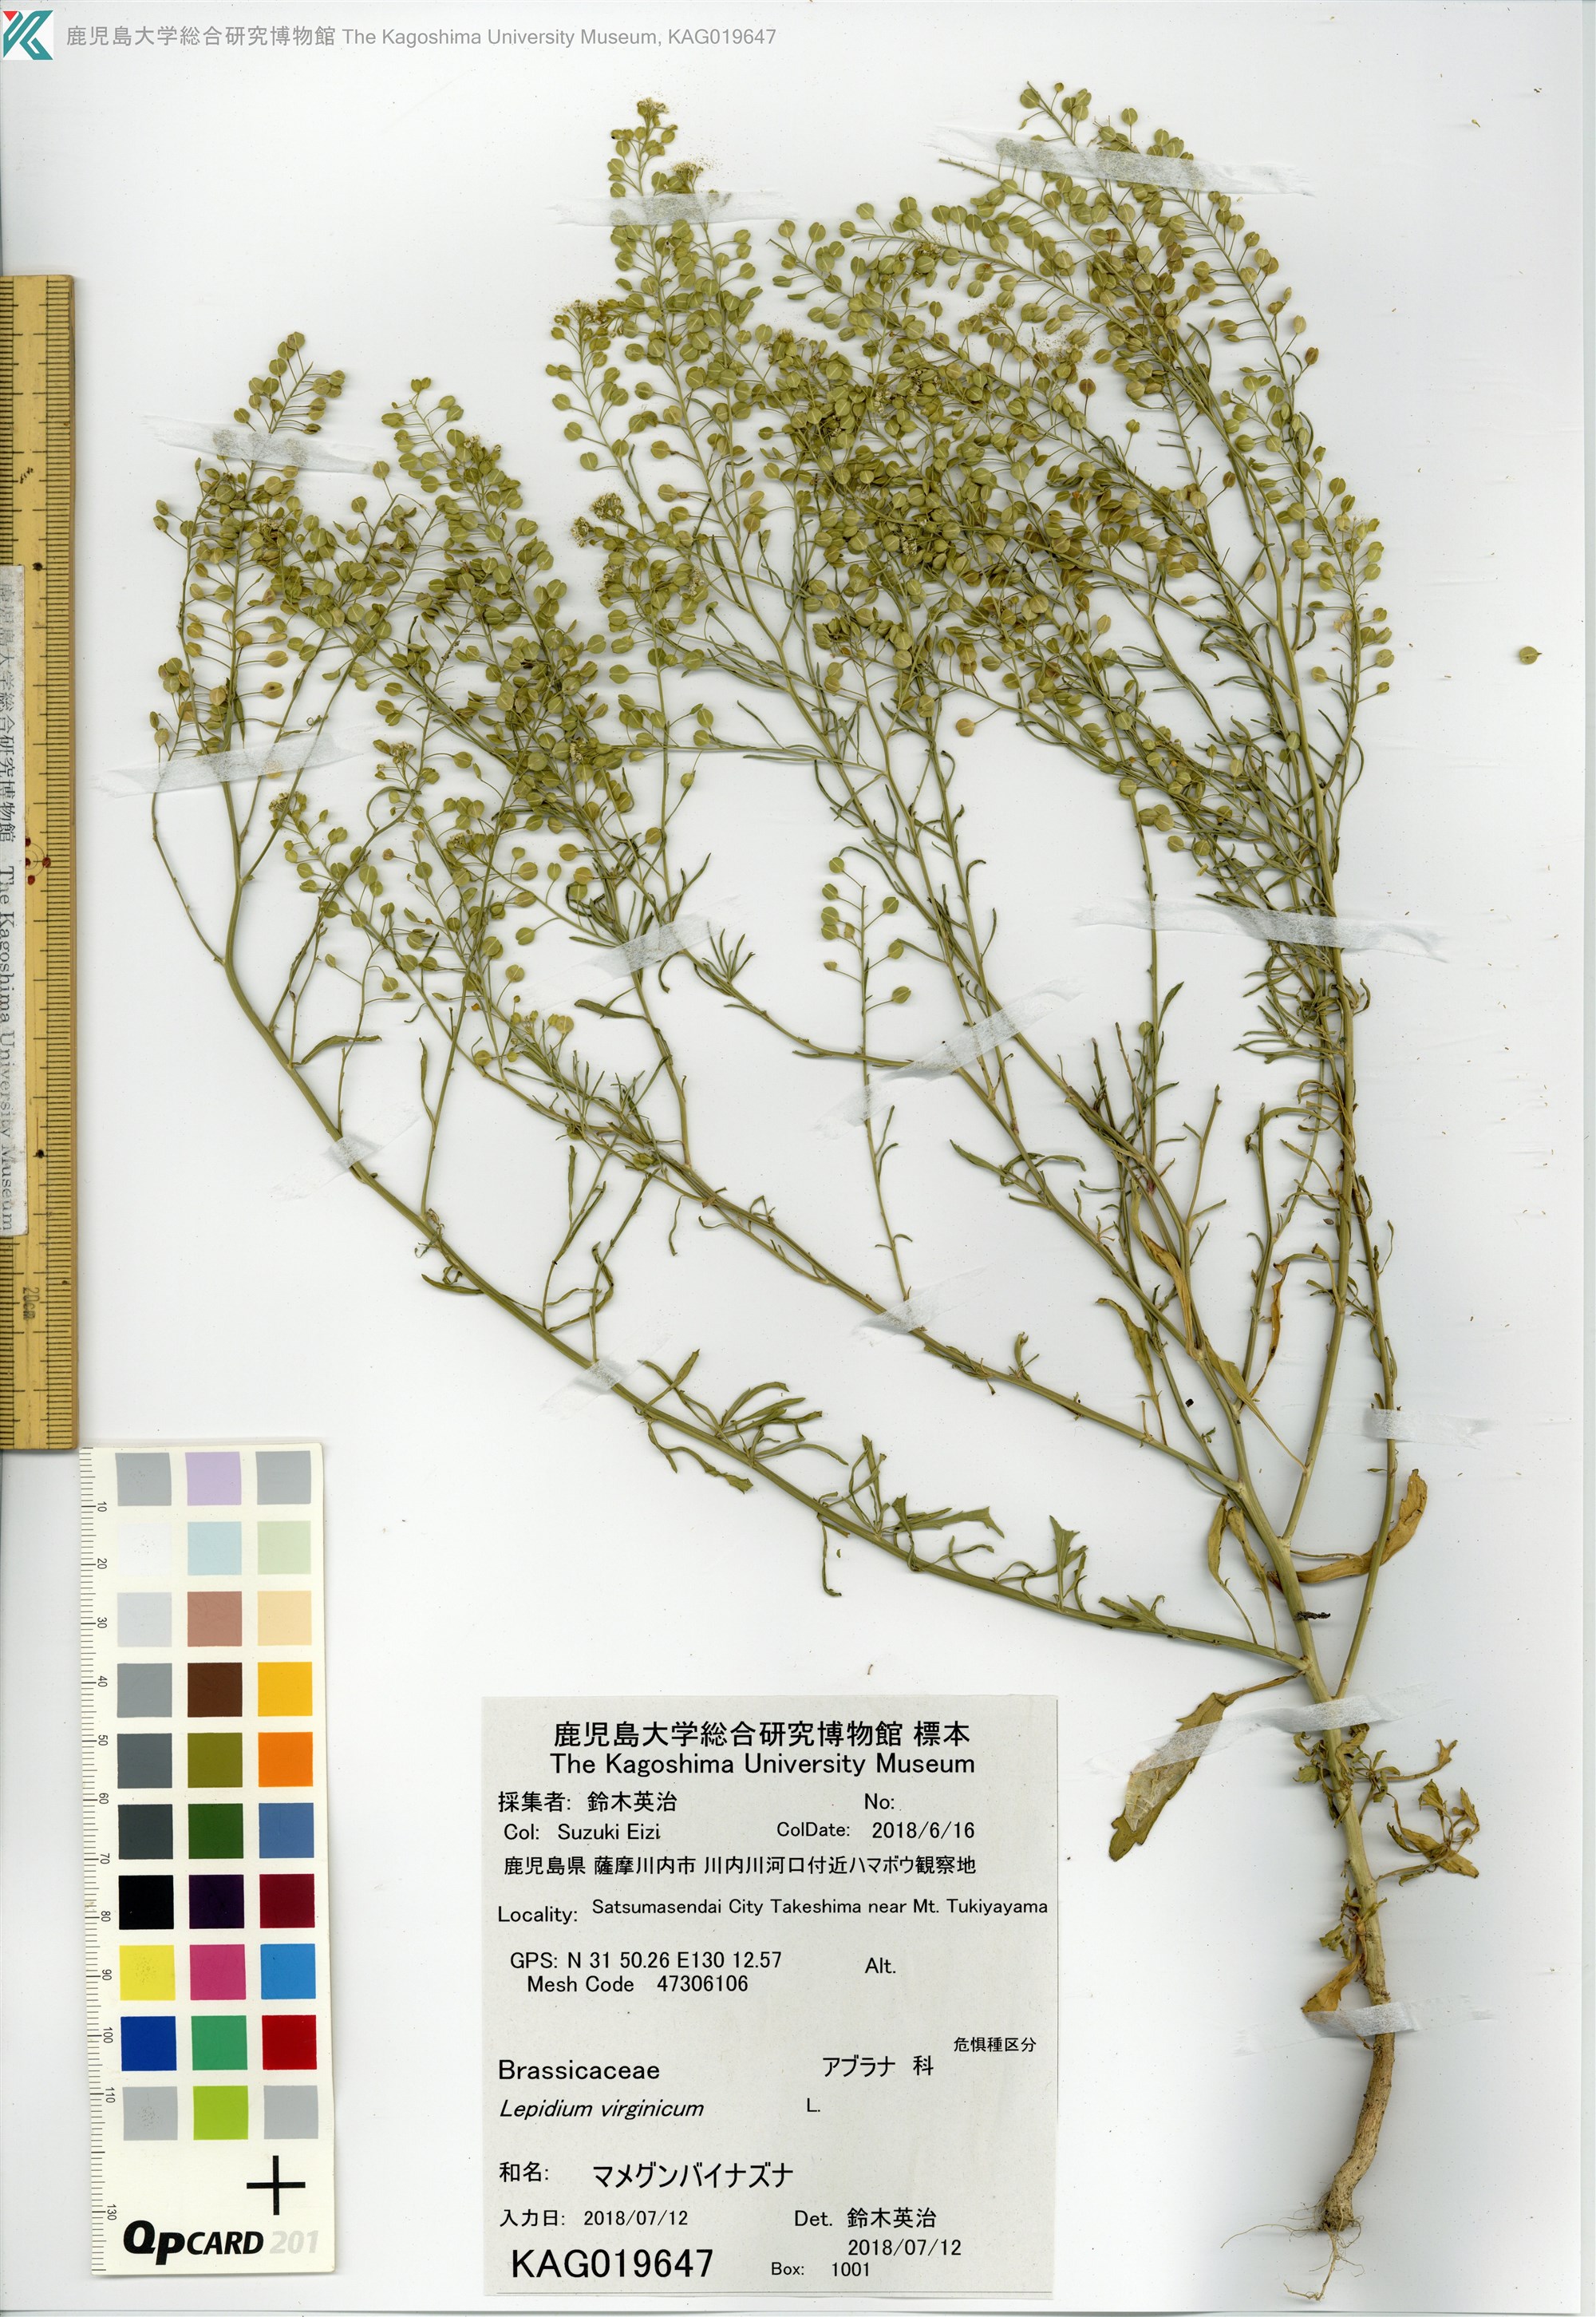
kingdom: Plantae
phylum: Tracheophyta
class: Magnoliopsida
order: Brassicales
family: Brassicaceae
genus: Lepidium
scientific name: Lepidium virginicum
